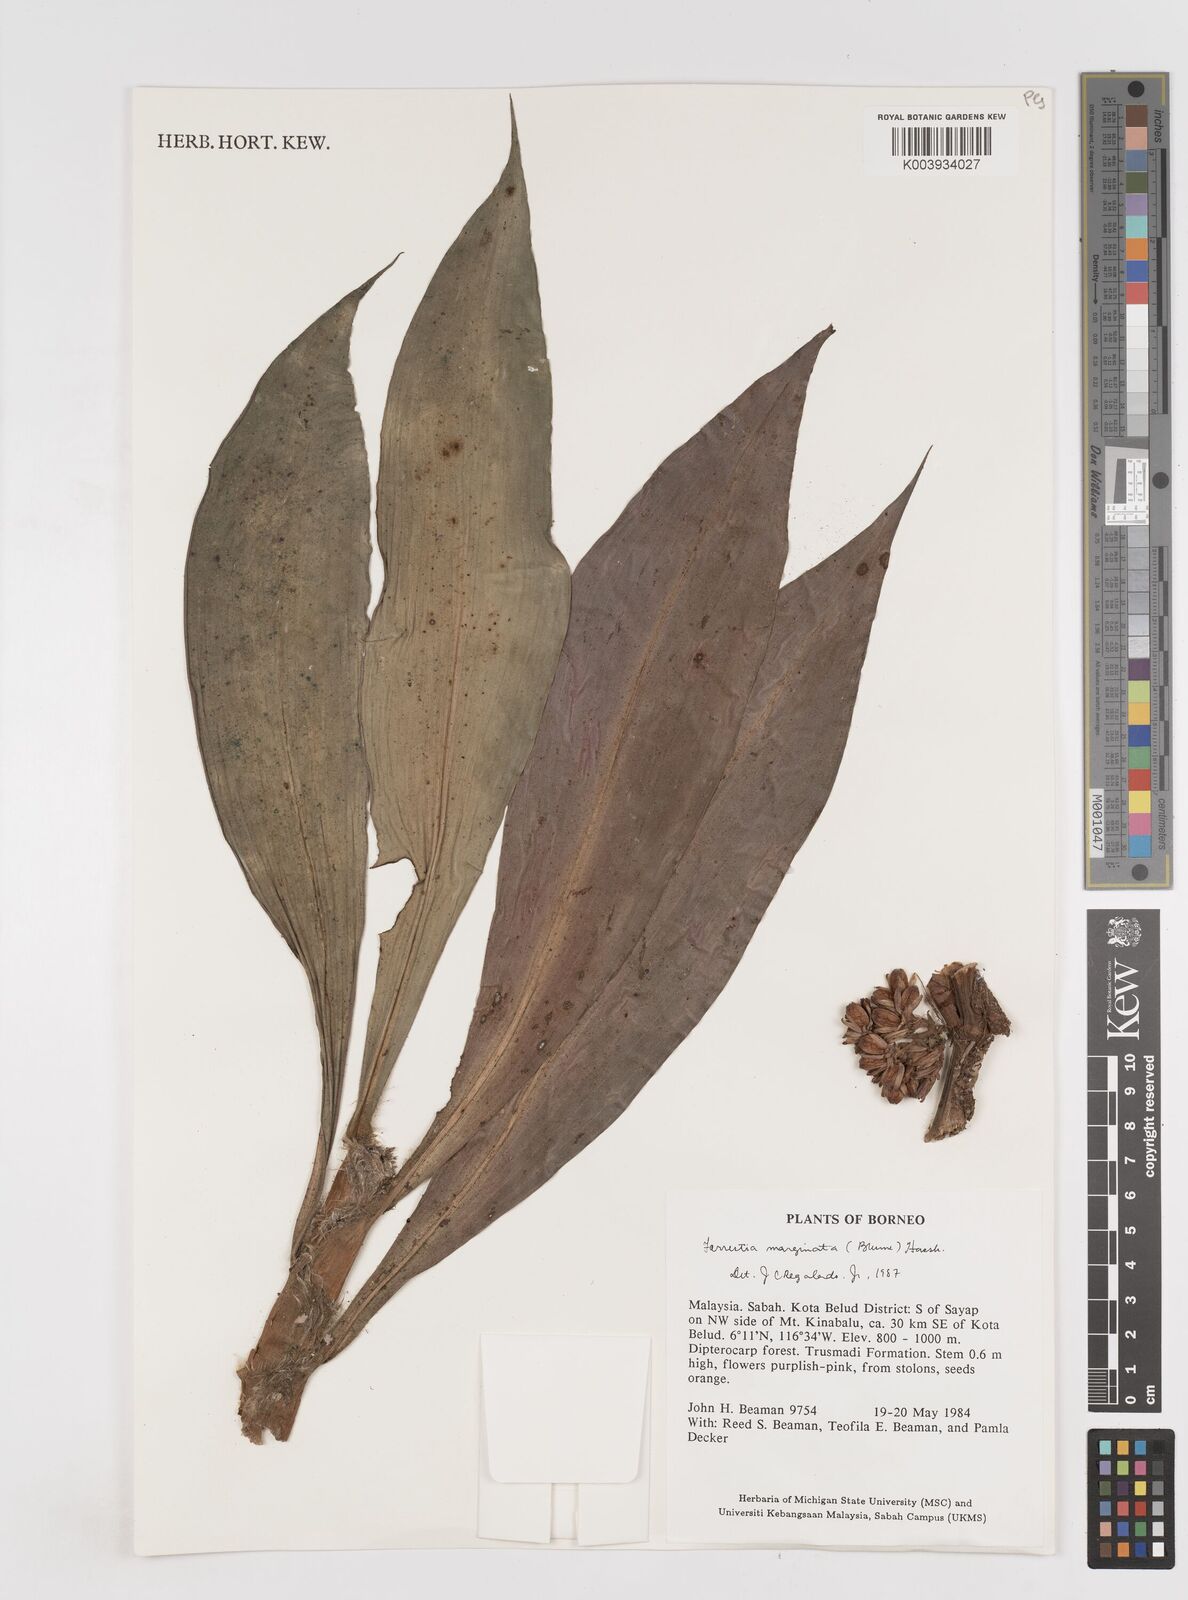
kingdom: Plantae
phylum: Tracheophyta
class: Liliopsida
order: Commelinales
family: Commelinaceae
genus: Amischotolype
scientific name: Amischotolype marginata
